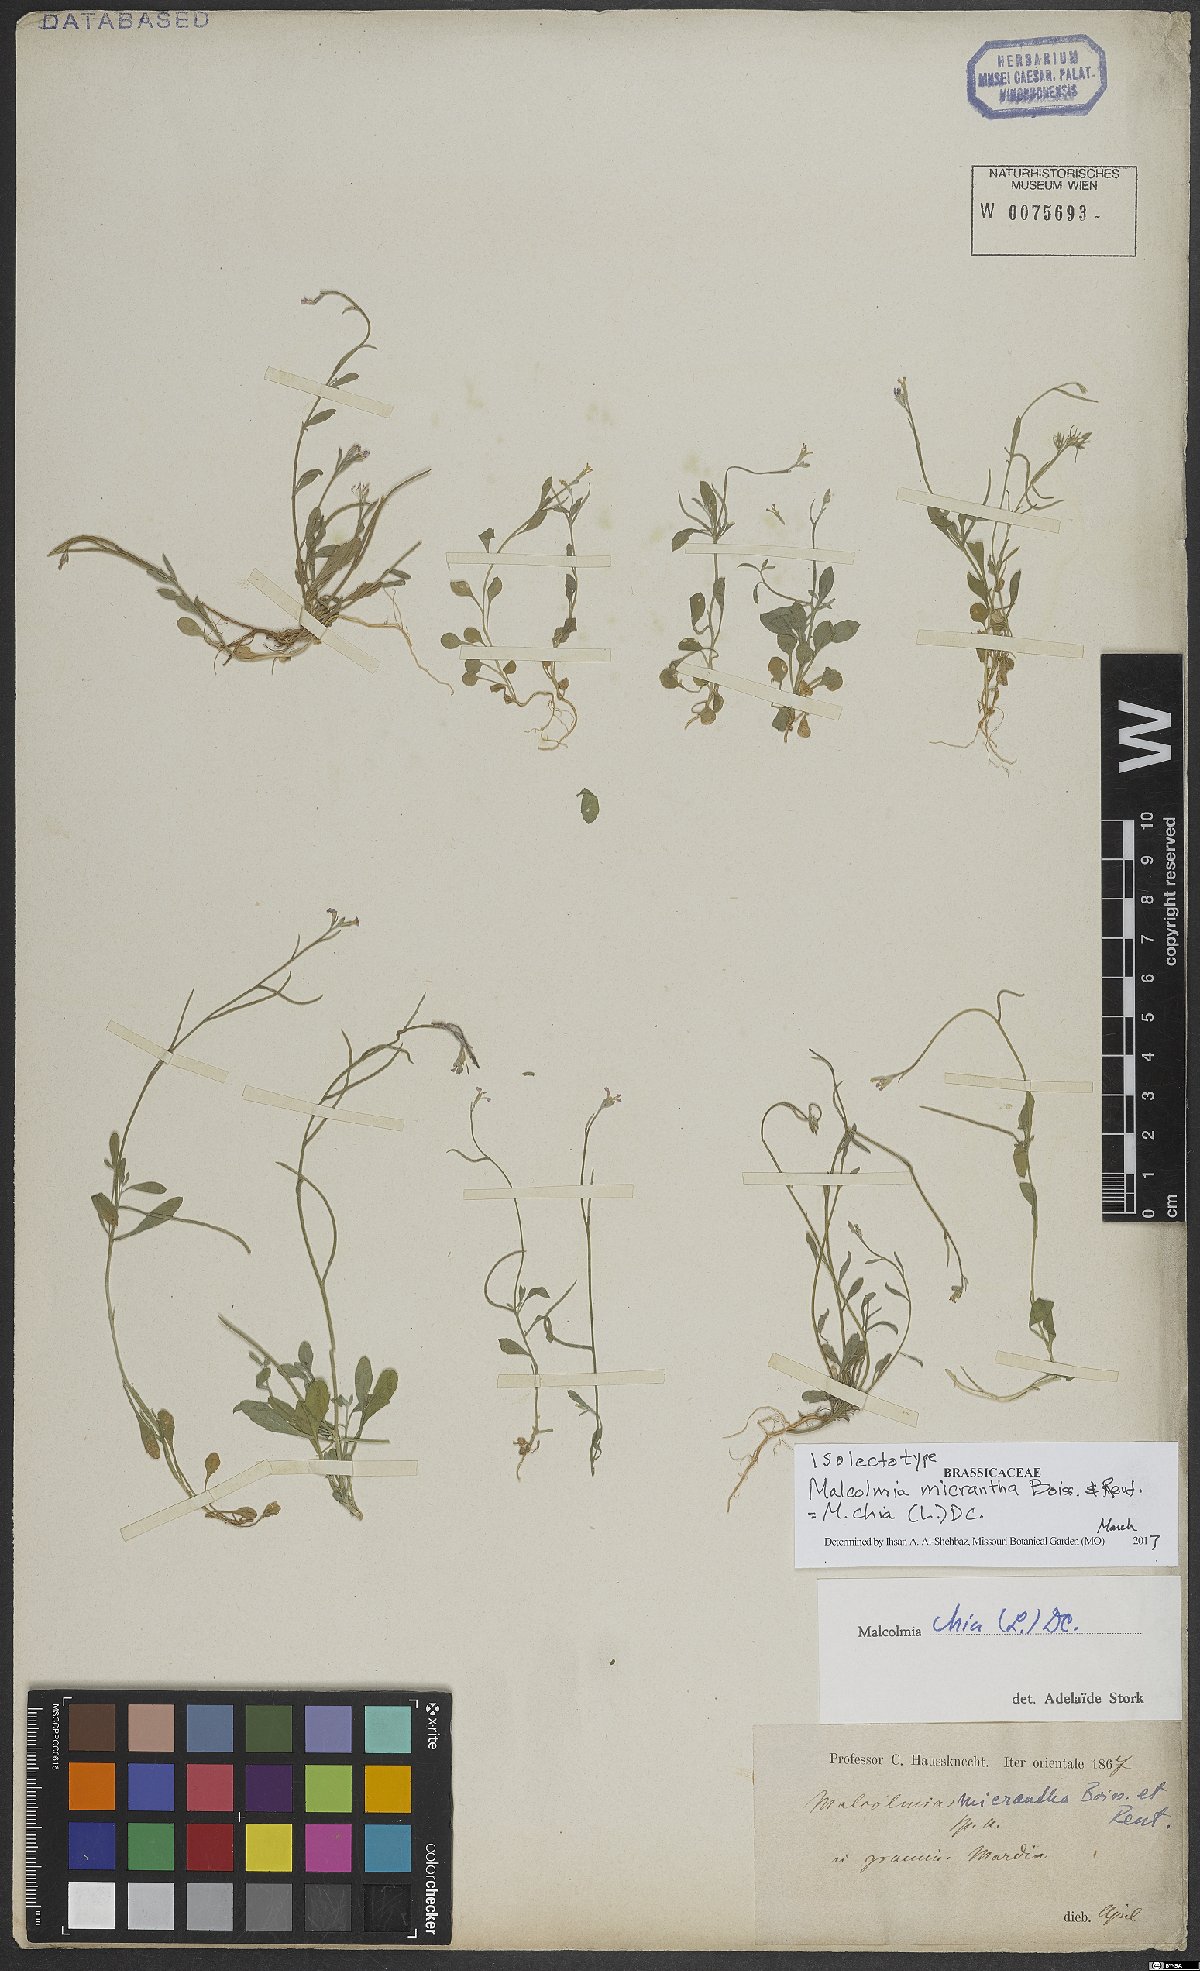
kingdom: Plantae
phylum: Tracheophyta
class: Magnoliopsida
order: Brassicales
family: Brassicaceae
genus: Malcolmia
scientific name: Malcolmia chia
